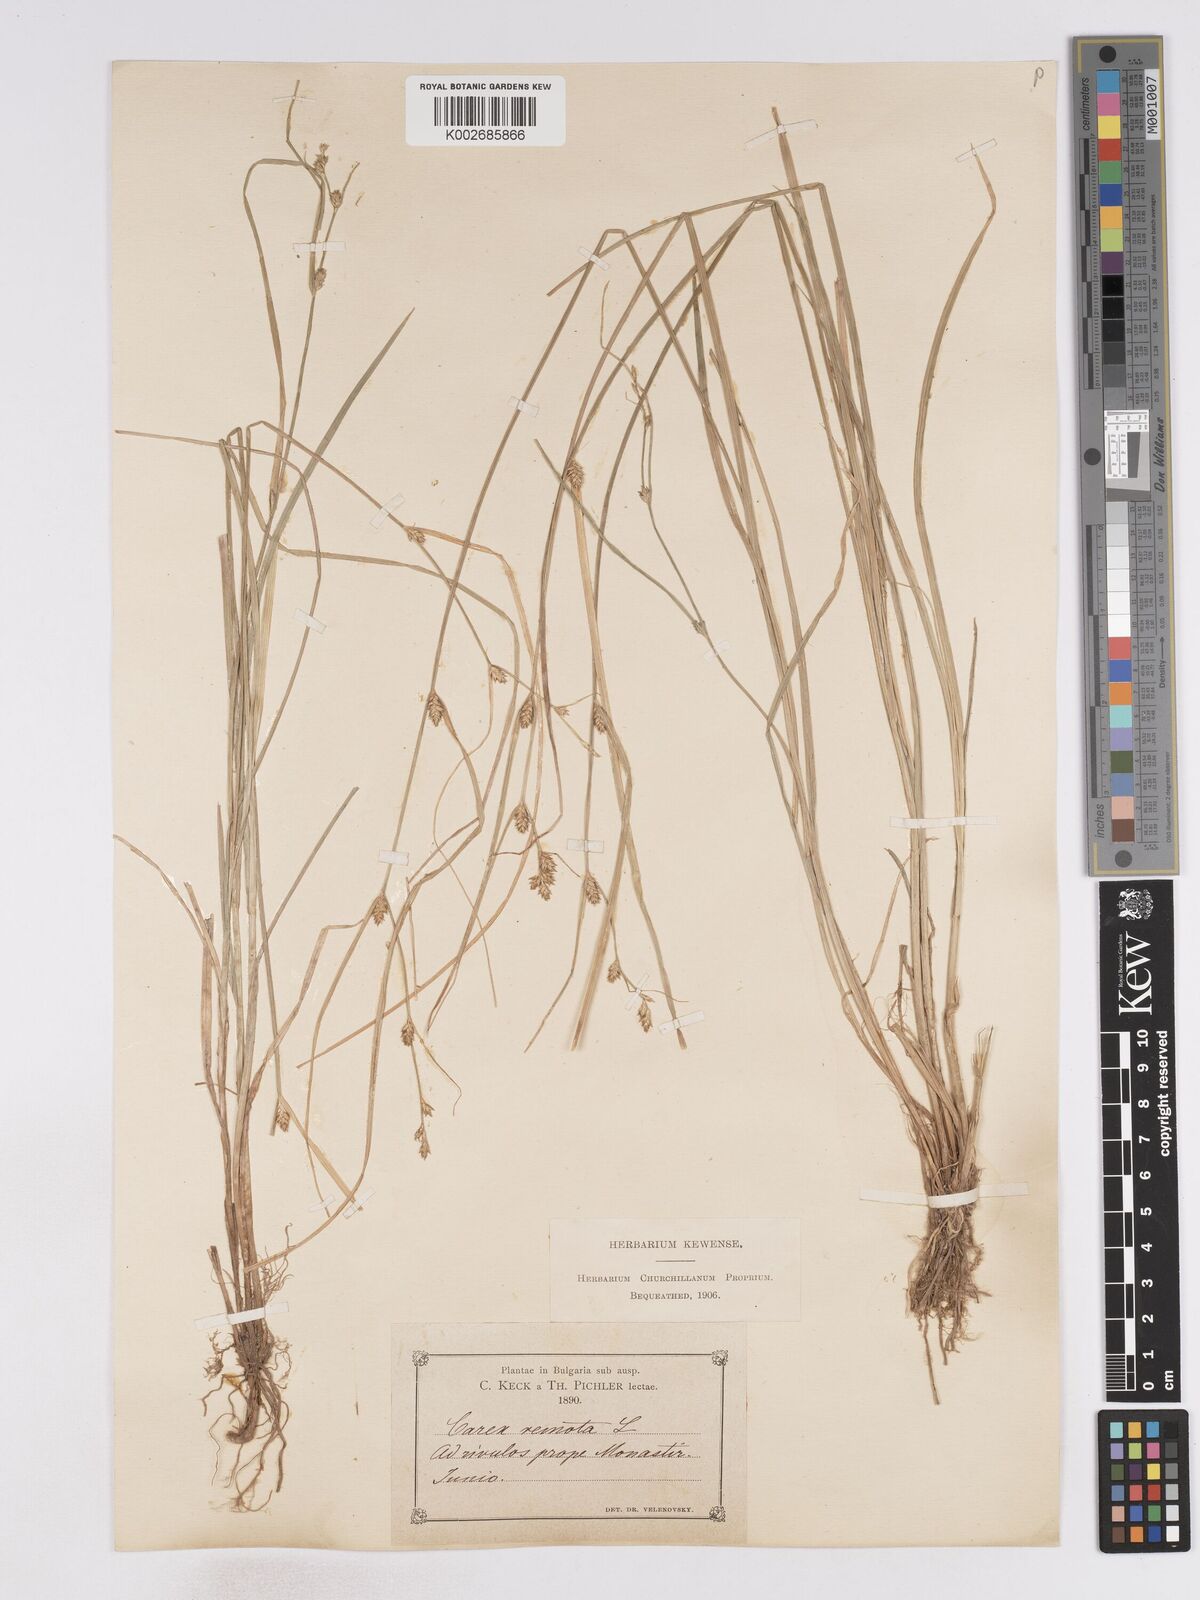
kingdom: Plantae
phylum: Tracheophyta
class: Liliopsida
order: Poales
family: Cyperaceae
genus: Carex
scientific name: Carex remota
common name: Remote sedge
